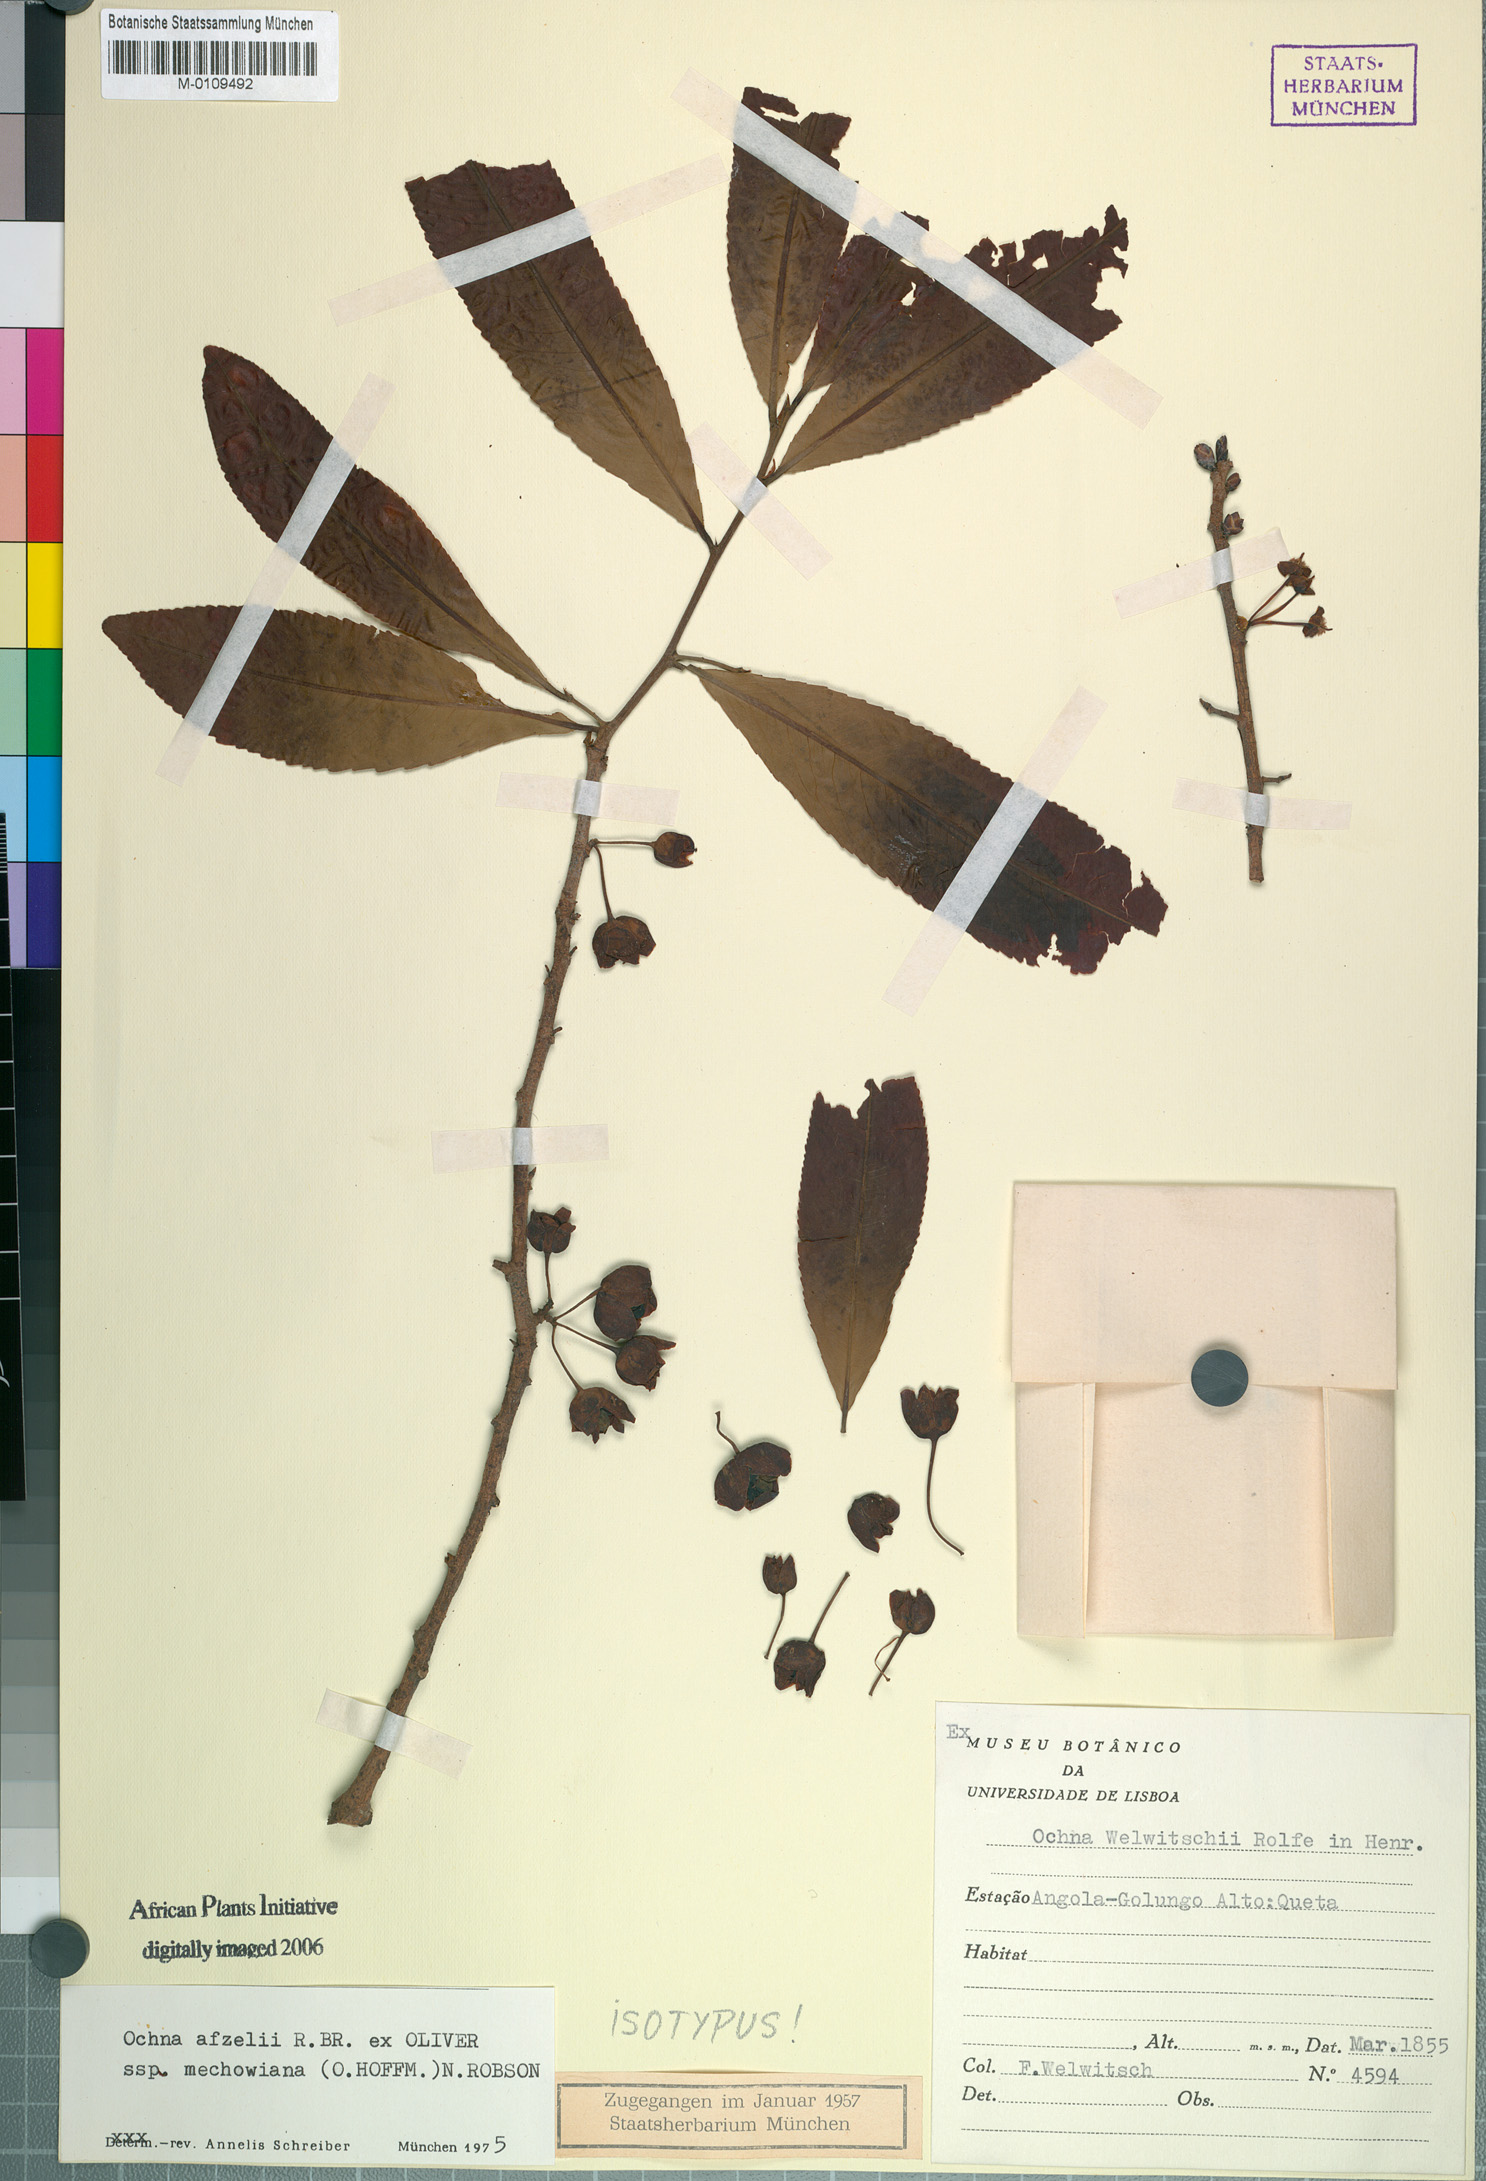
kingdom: Plantae
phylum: Tracheophyta
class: Magnoliopsida
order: Malpighiales
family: Ochnaceae
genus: Ochna
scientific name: Ochna afzelii
